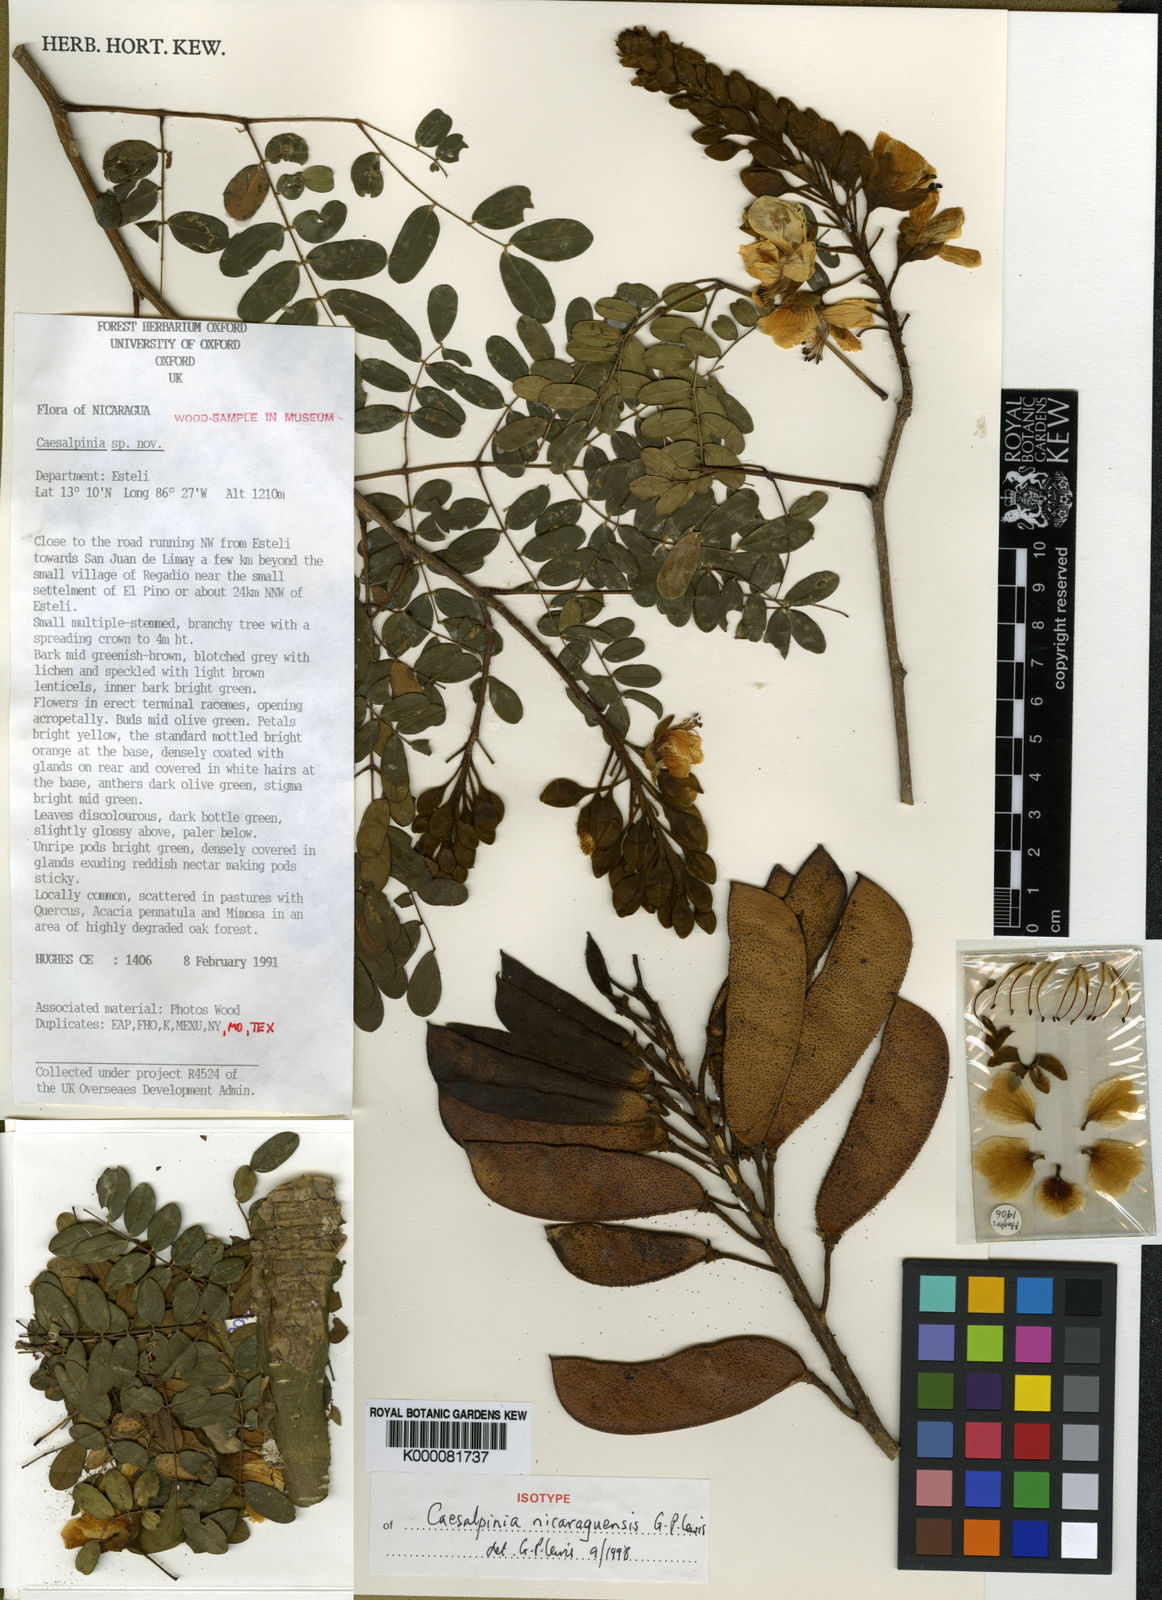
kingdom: Plantae
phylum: Tracheophyta
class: Magnoliopsida
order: Fabales
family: Fabaceae
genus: Erythrostemon
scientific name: Erythrostemon nicaraguensis
